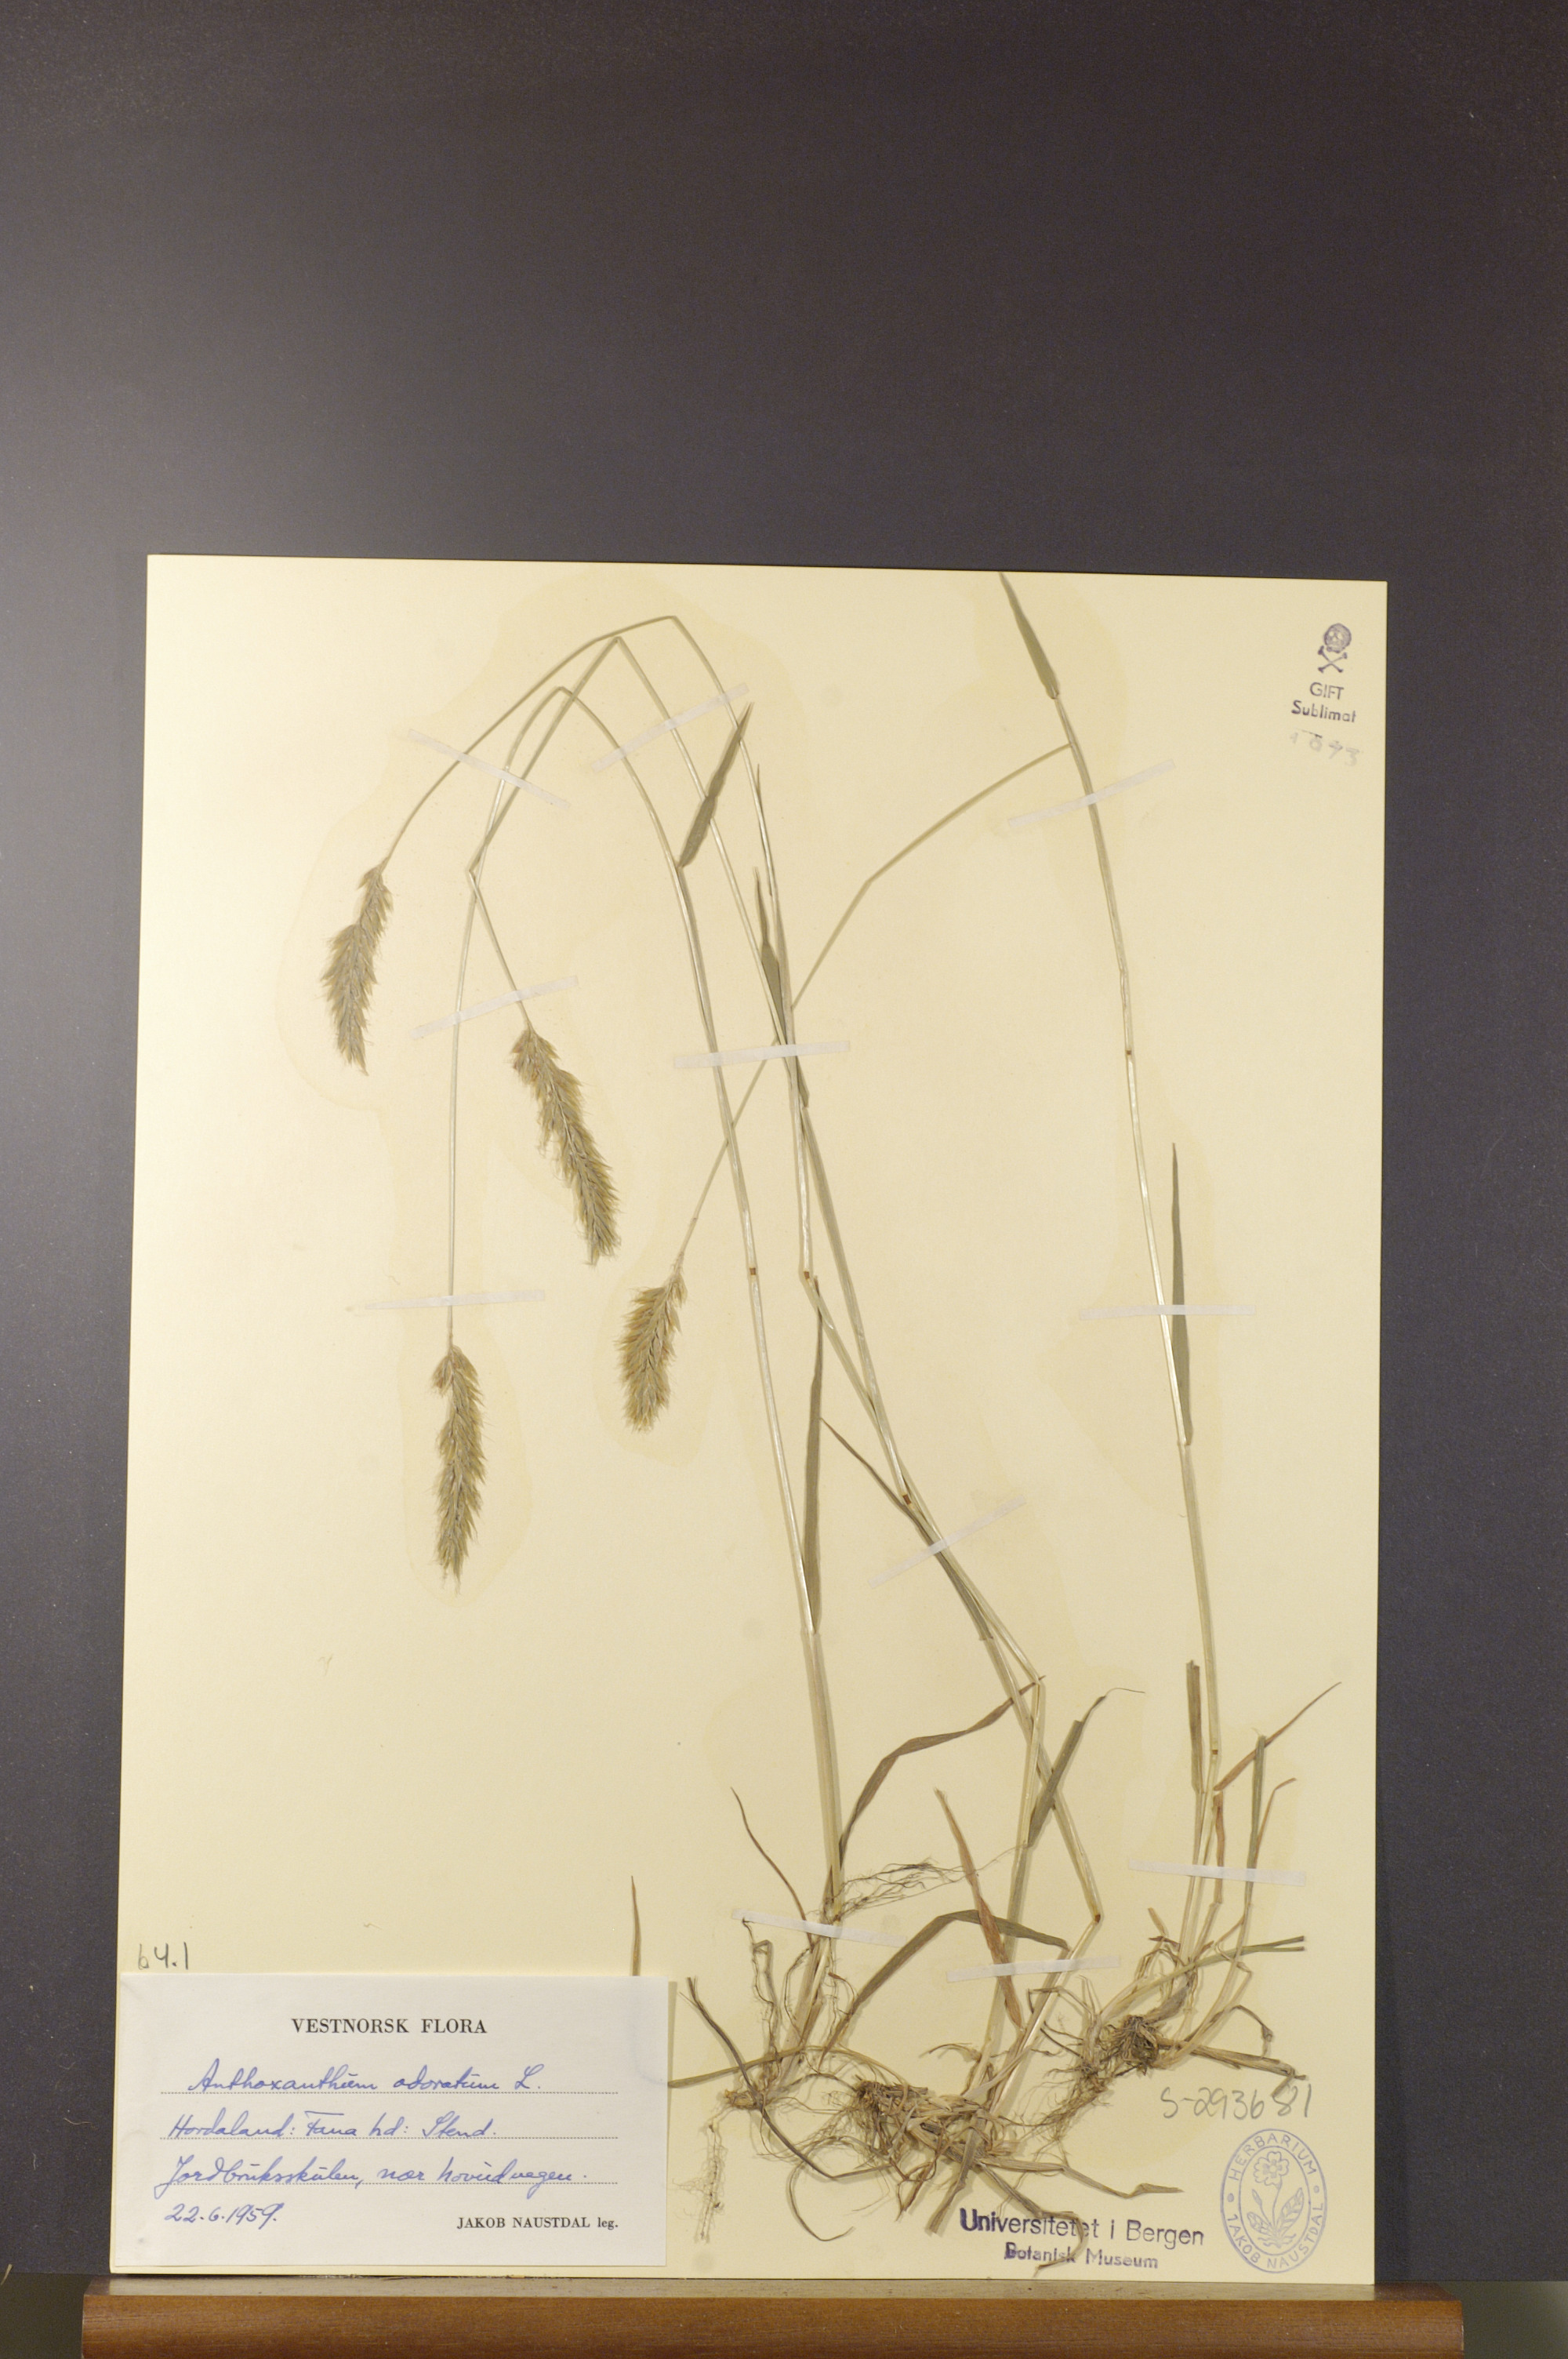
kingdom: Plantae
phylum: Tracheophyta
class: Liliopsida
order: Poales
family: Poaceae
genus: Anthoxanthum
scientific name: Anthoxanthum odoratum
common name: Sweet vernalgrass
